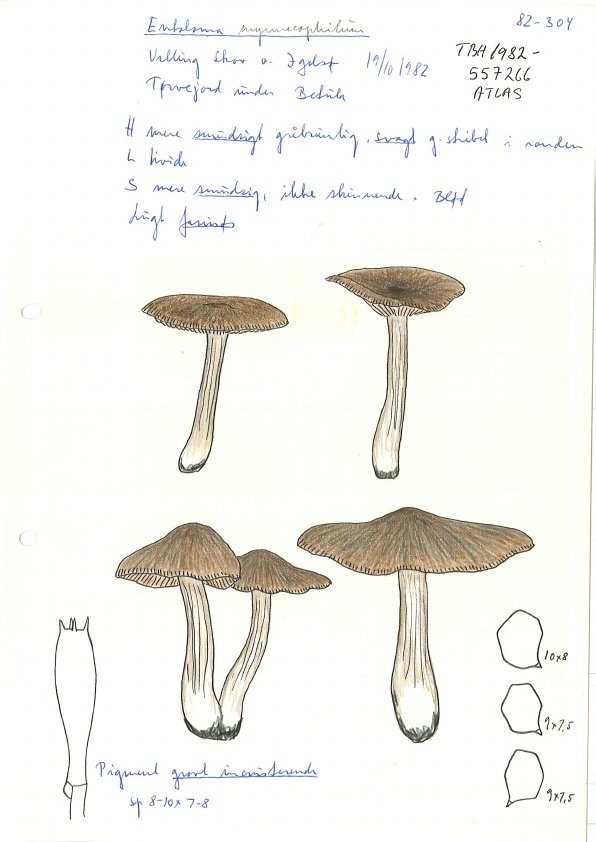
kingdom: Fungi
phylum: Basidiomycota
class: Agaricomycetes
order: Agaricales
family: Entolomataceae
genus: Entoloma
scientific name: Entoloma sericatum
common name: rank rødblad
